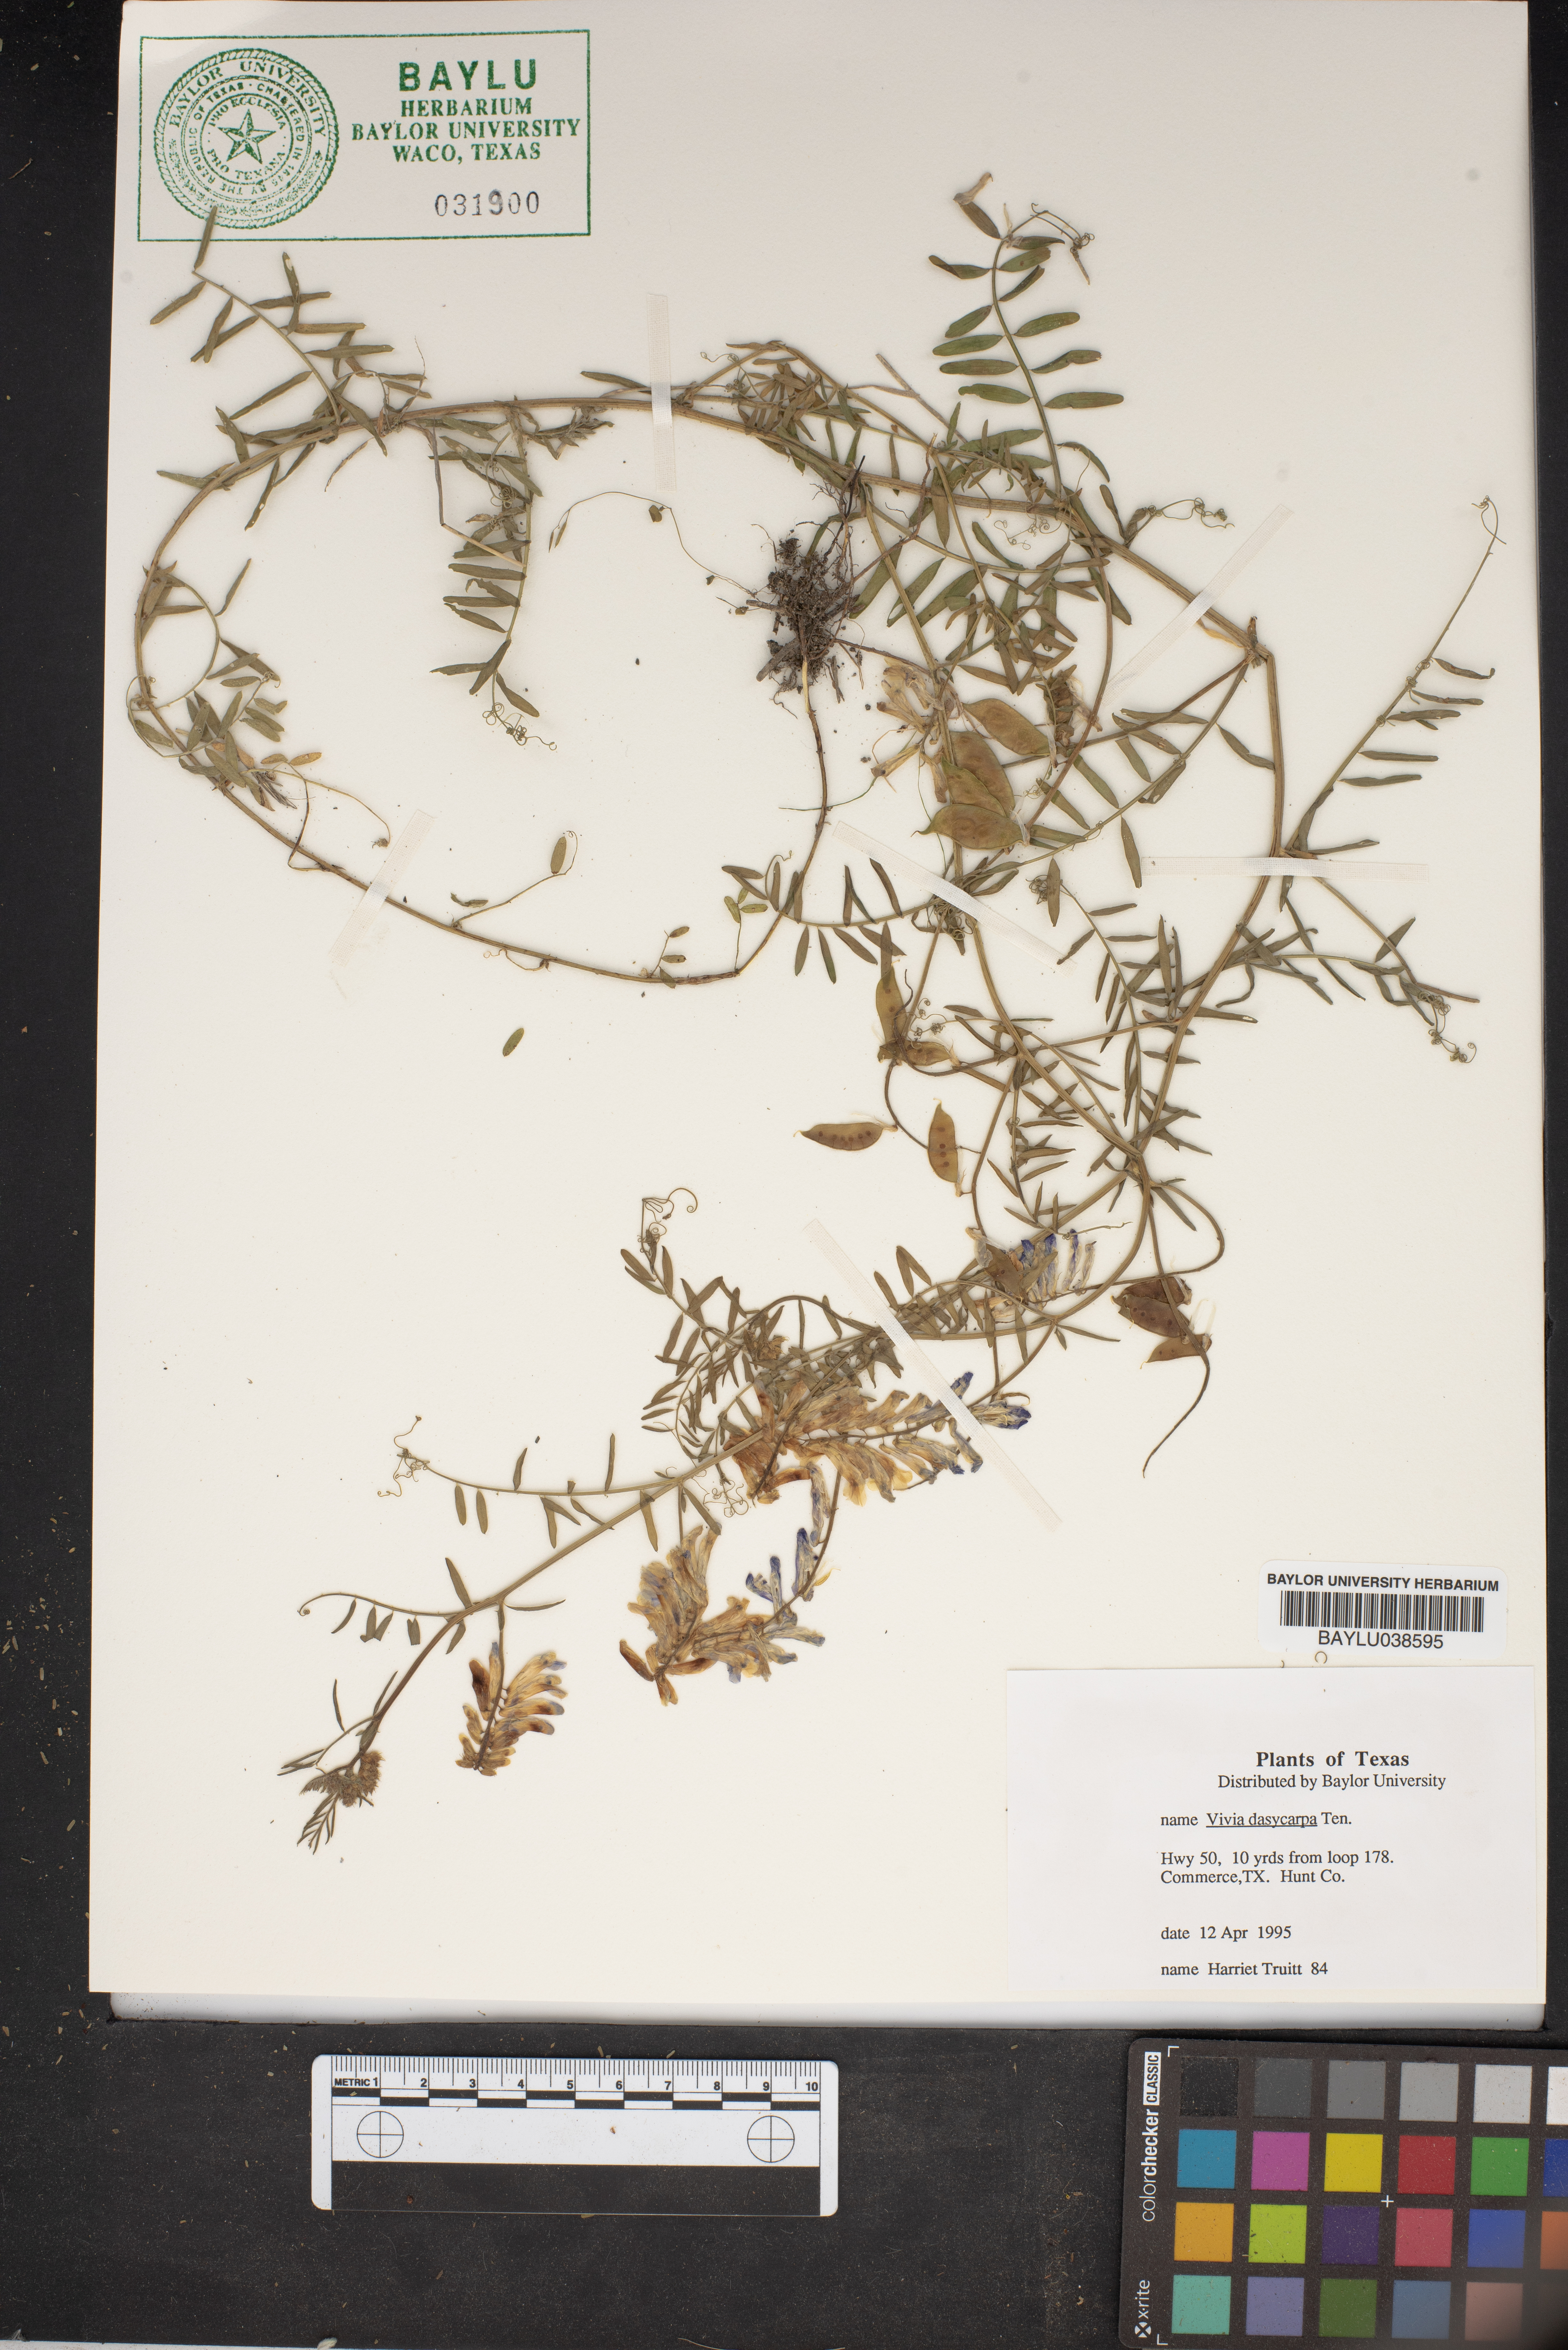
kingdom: Plantae
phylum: Tracheophyta
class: Magnoliopsida
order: Fabales
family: Fabaceae
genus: Vicia
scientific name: Vicia villosa
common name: Fodder vetch
